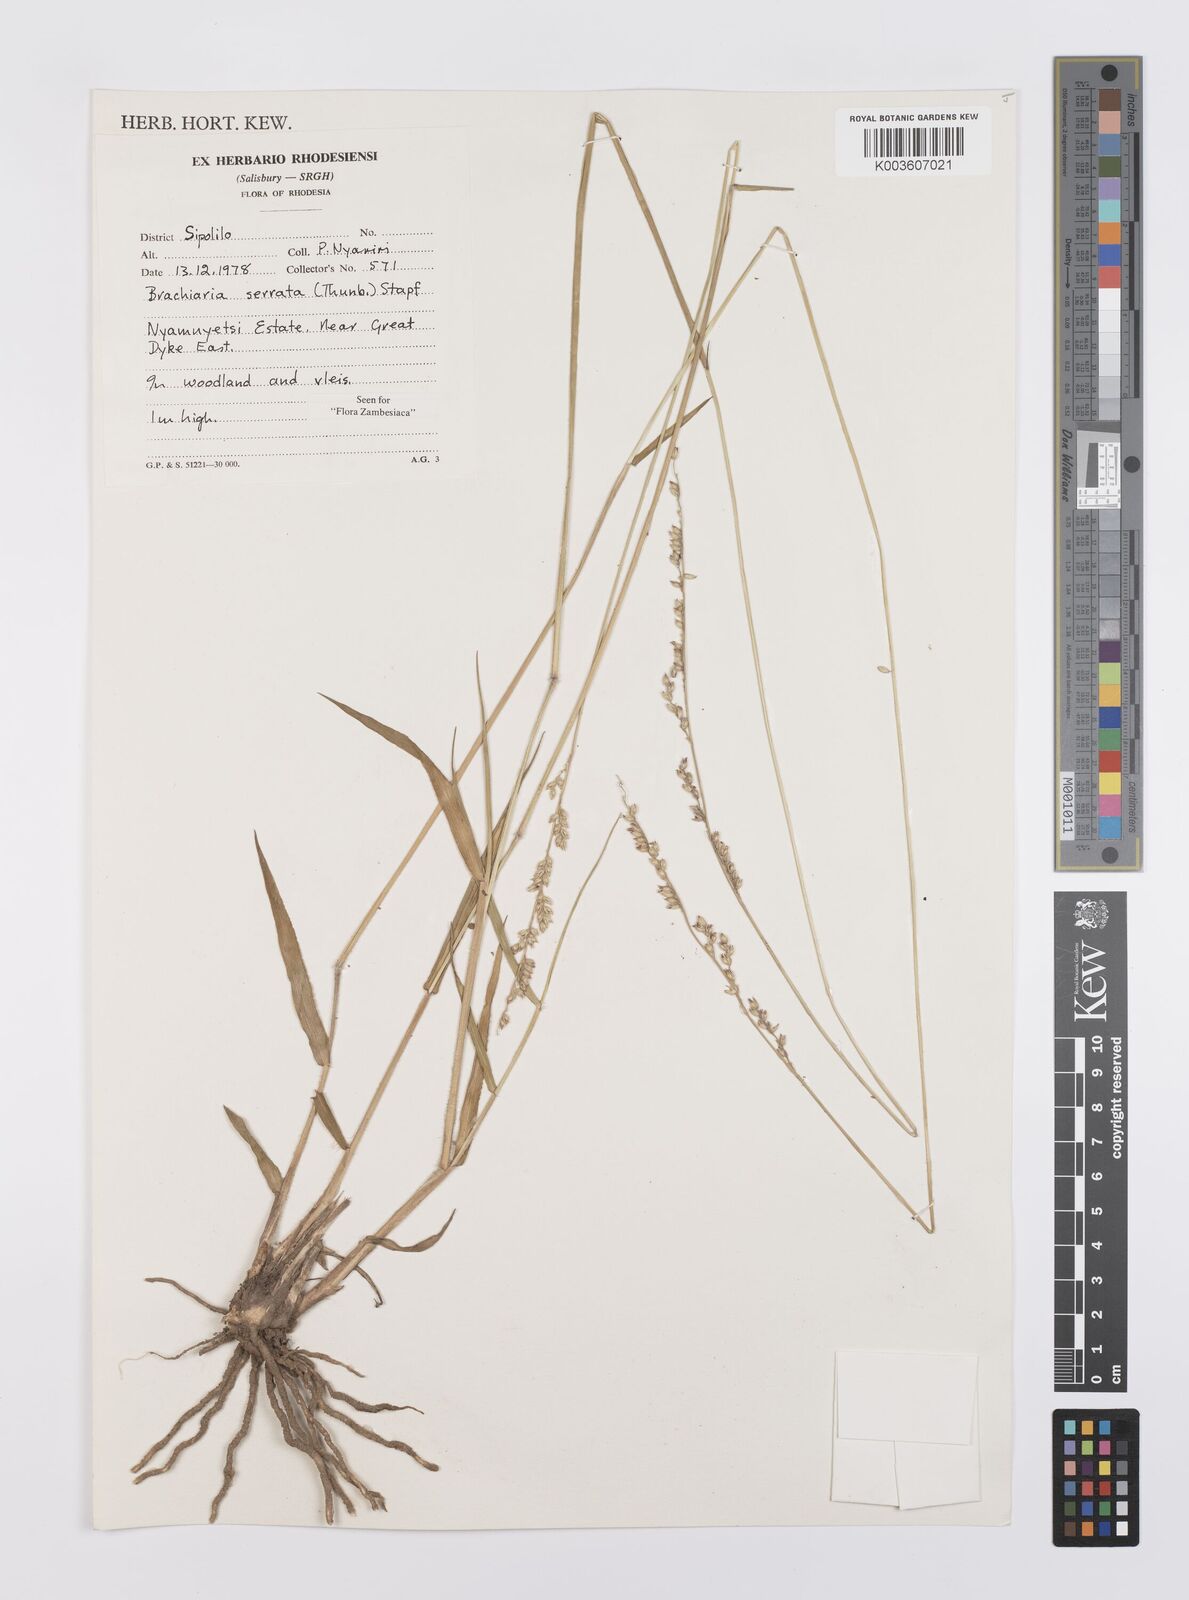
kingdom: Plantae
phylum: Tracheophyta
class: Liliopsida
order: Poales
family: Poaceae
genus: Urochloa
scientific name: Urochloa serrata
